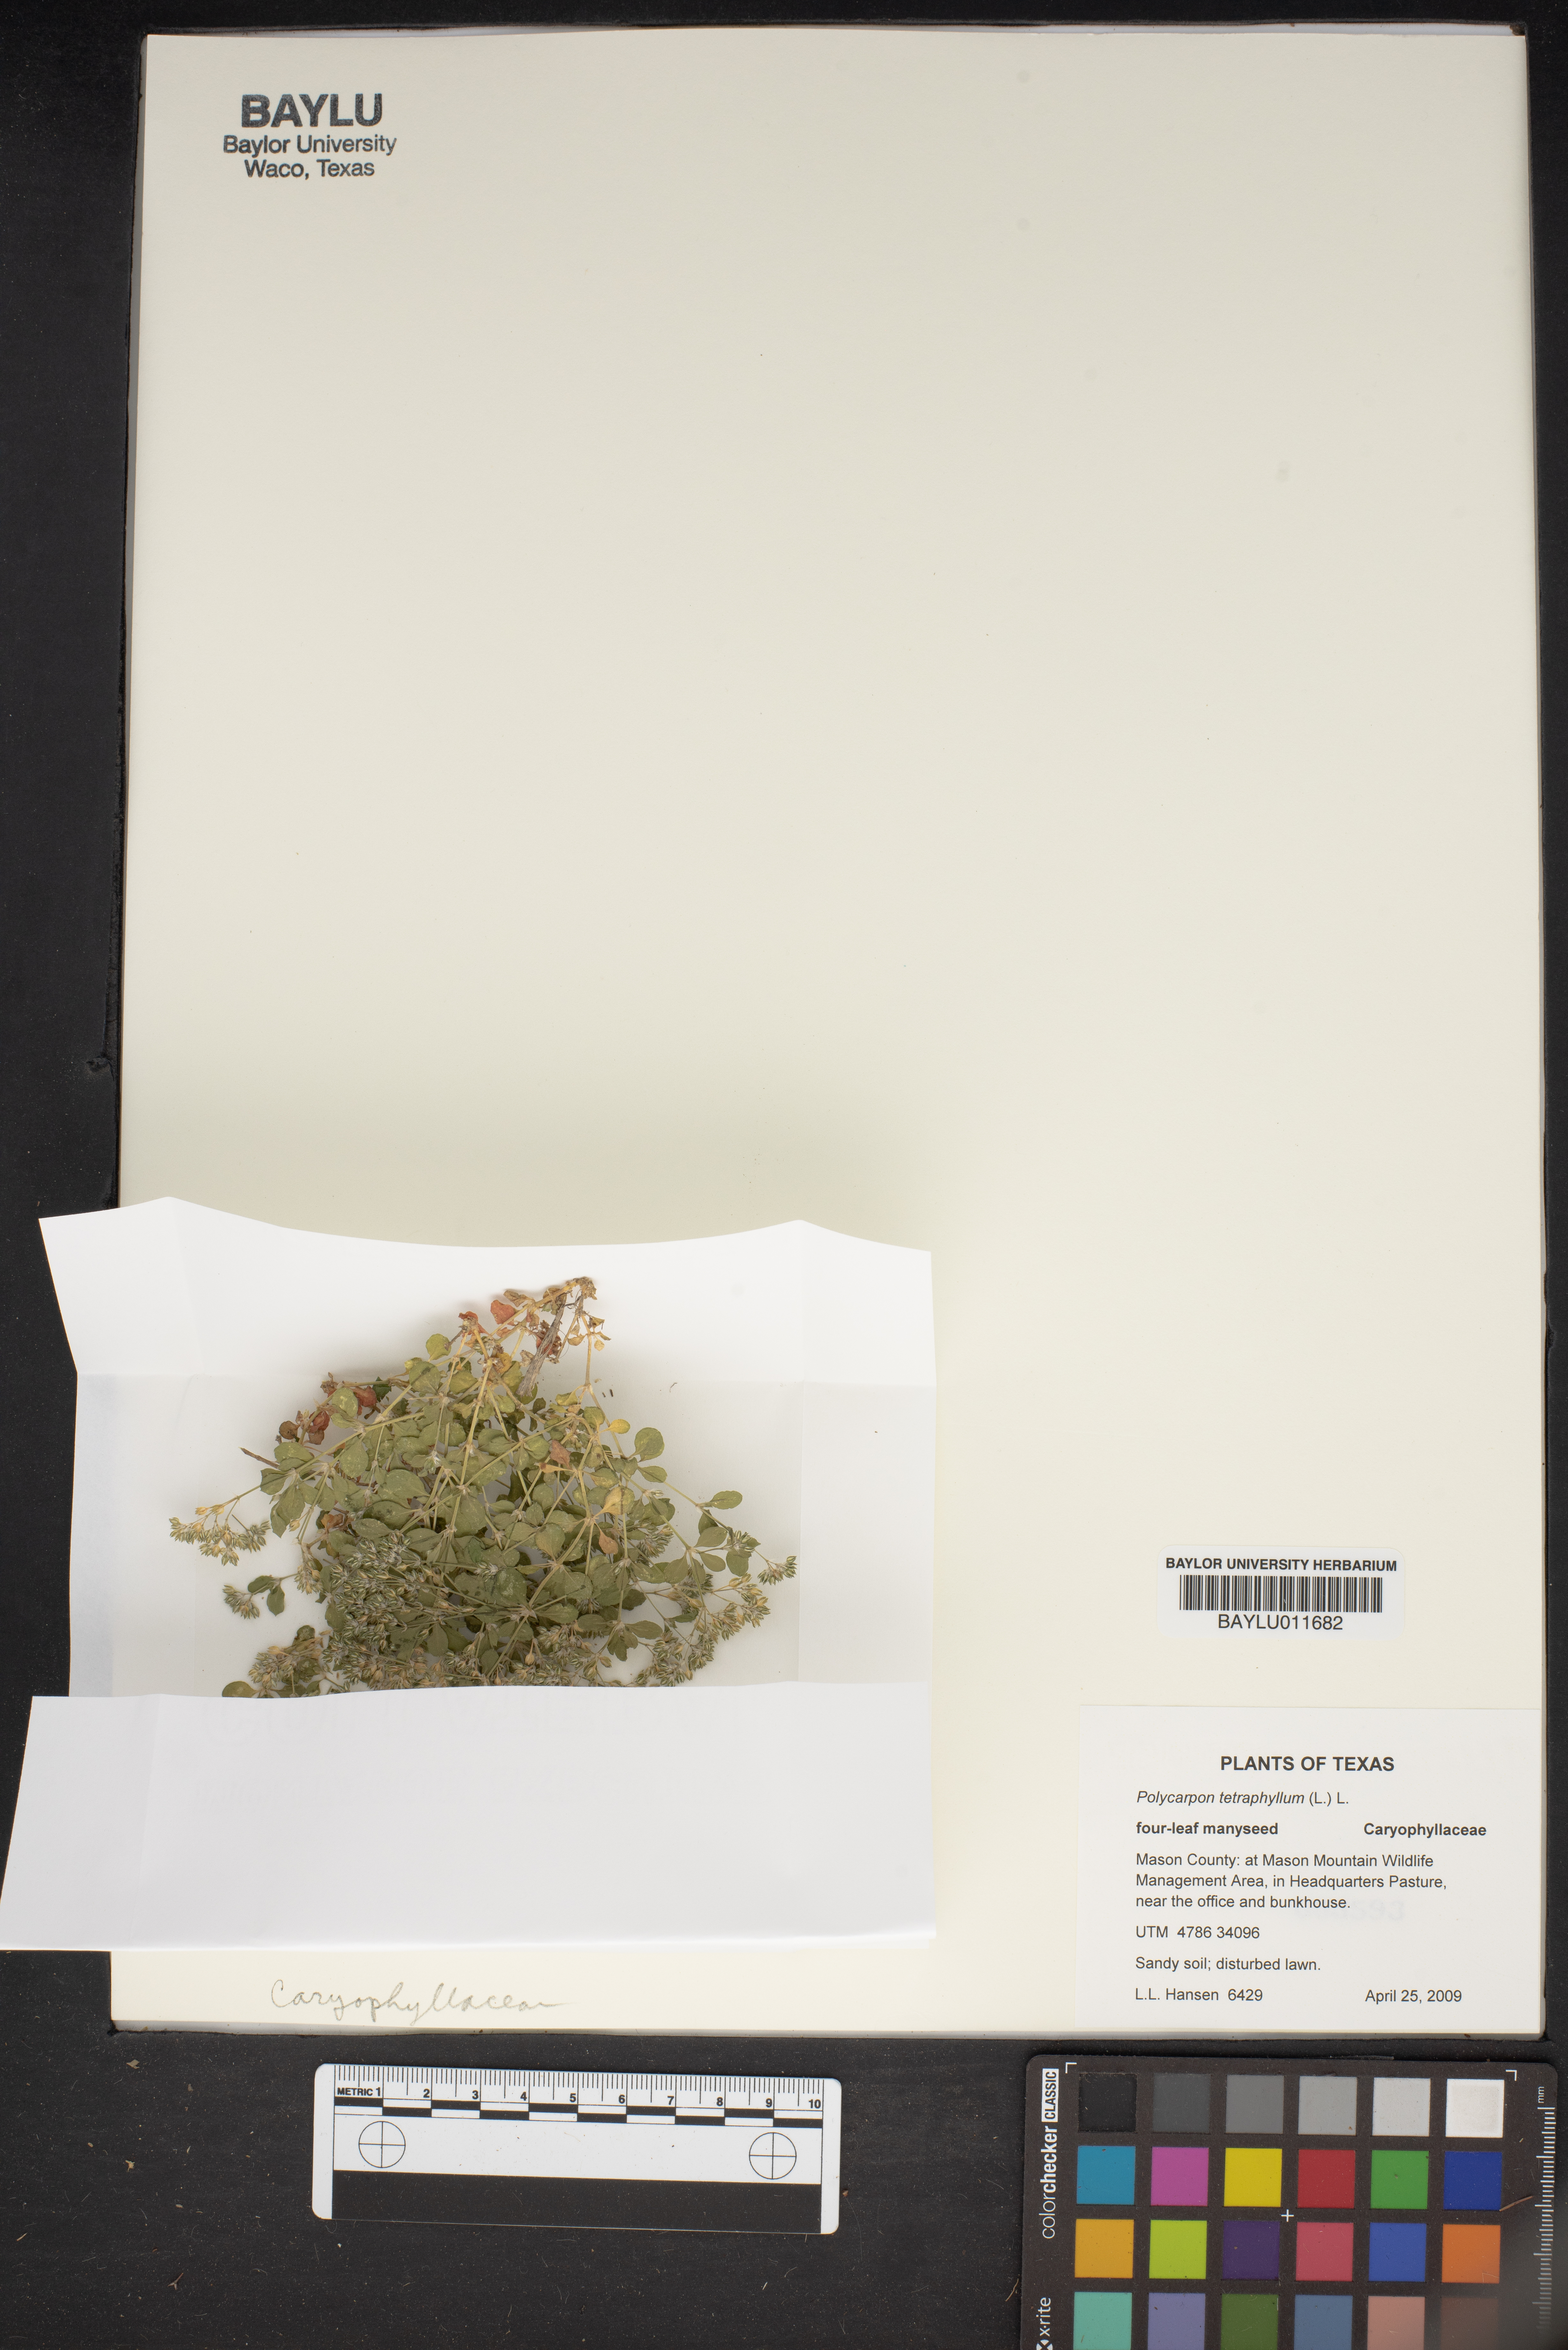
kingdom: Plantae
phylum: Tracheophyta
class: Magnoliopsida
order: Caryophyllales
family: Caryophyllaceae
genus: Polycarpon
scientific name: Polycarpon tetraphyllum
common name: Four-leaved all-seed
